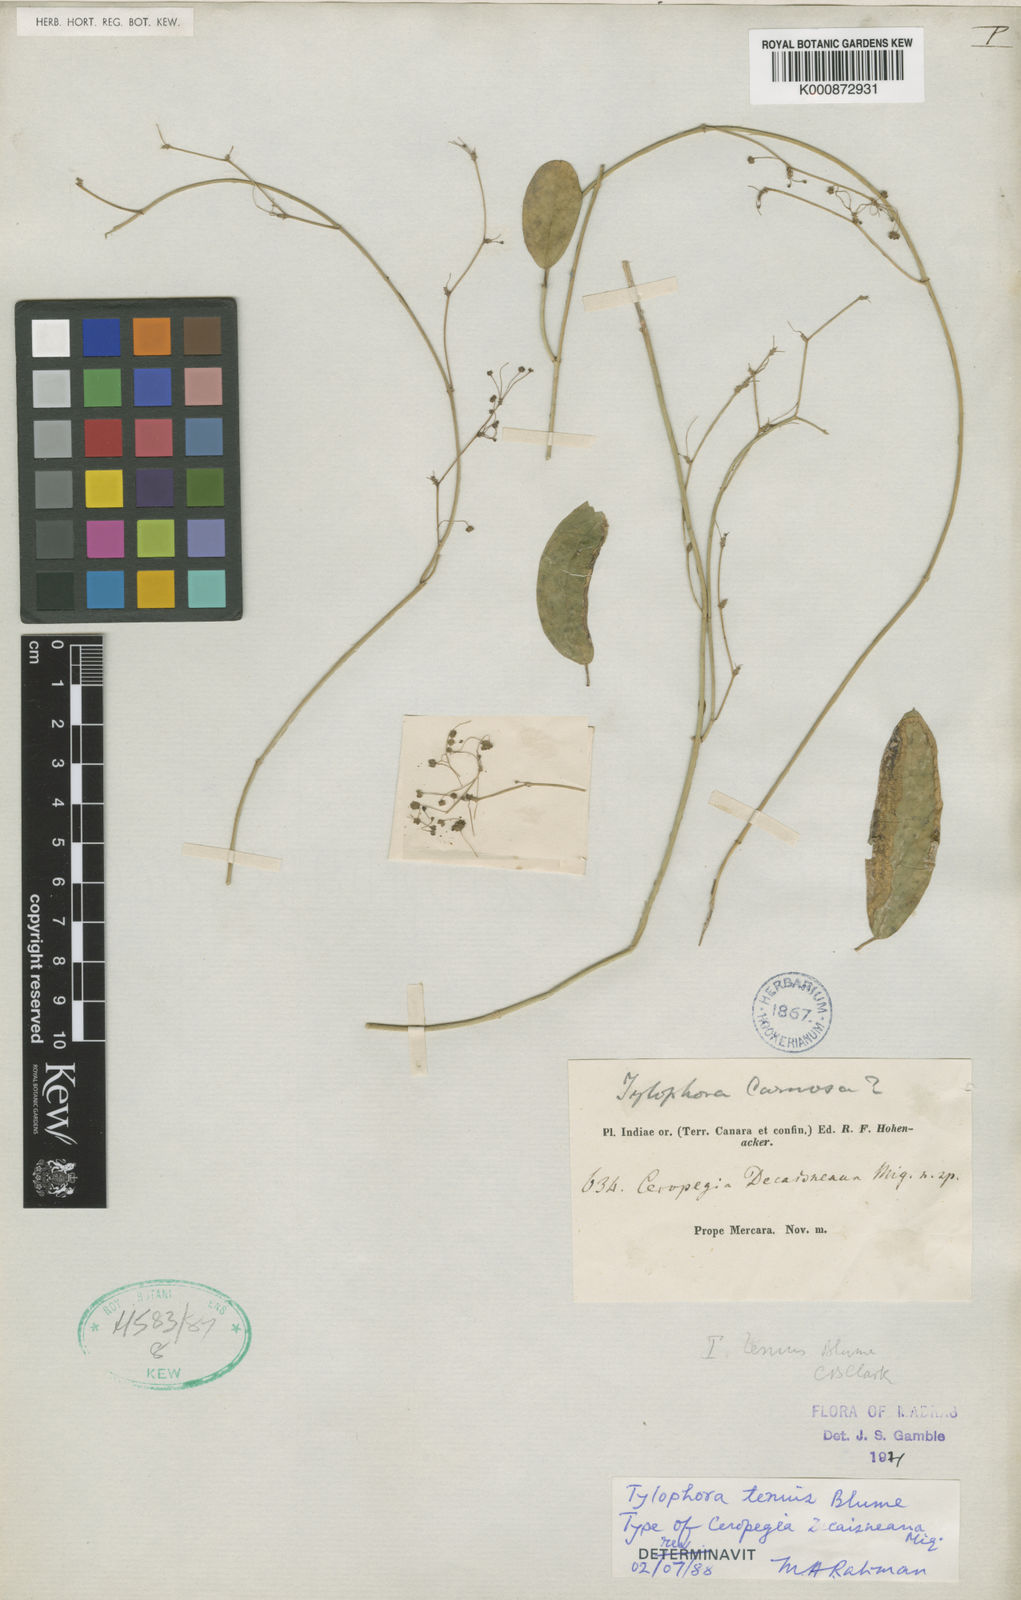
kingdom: Plantae
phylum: Tracheophyta
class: Magnoliopsida
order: Gentianales
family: Apocynaceae
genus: Vincetoxicum
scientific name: Vincetoxicum flexuosum
